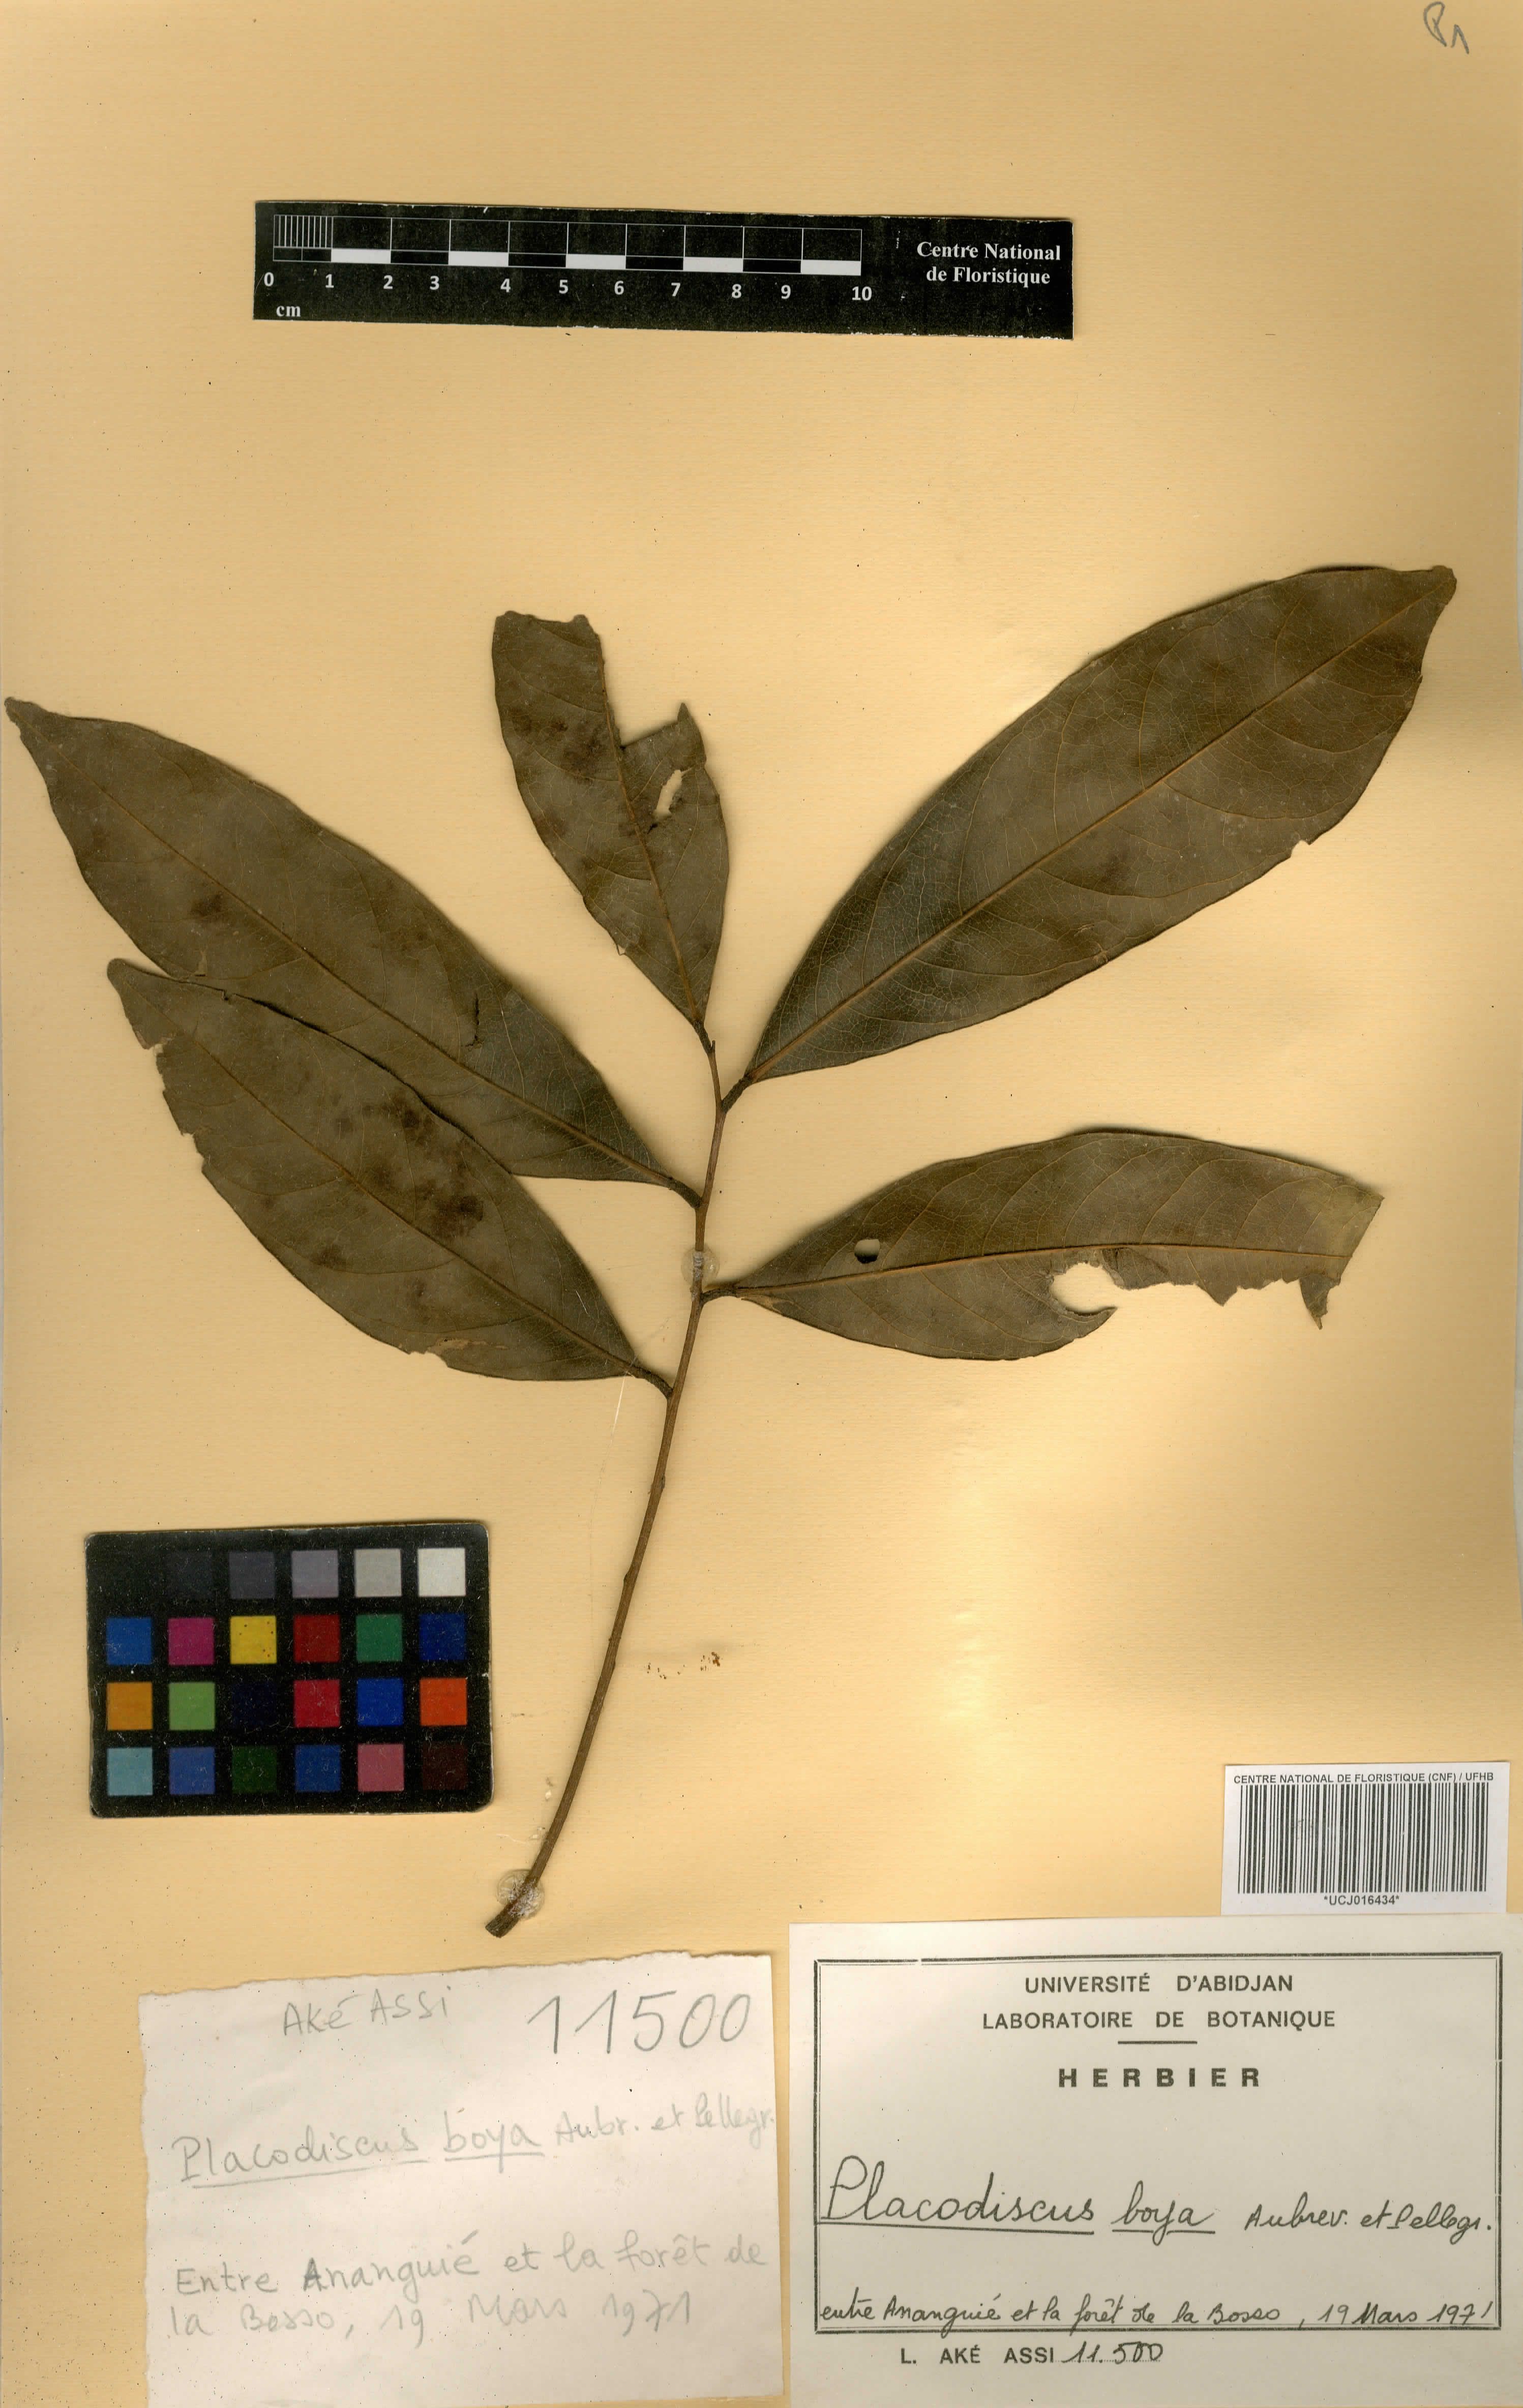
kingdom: Plantae
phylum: Tracheophyta
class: Magnoliopsida
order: Sapindales
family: Sapindaceae
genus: Placodiscus
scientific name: Placodiscus boya
